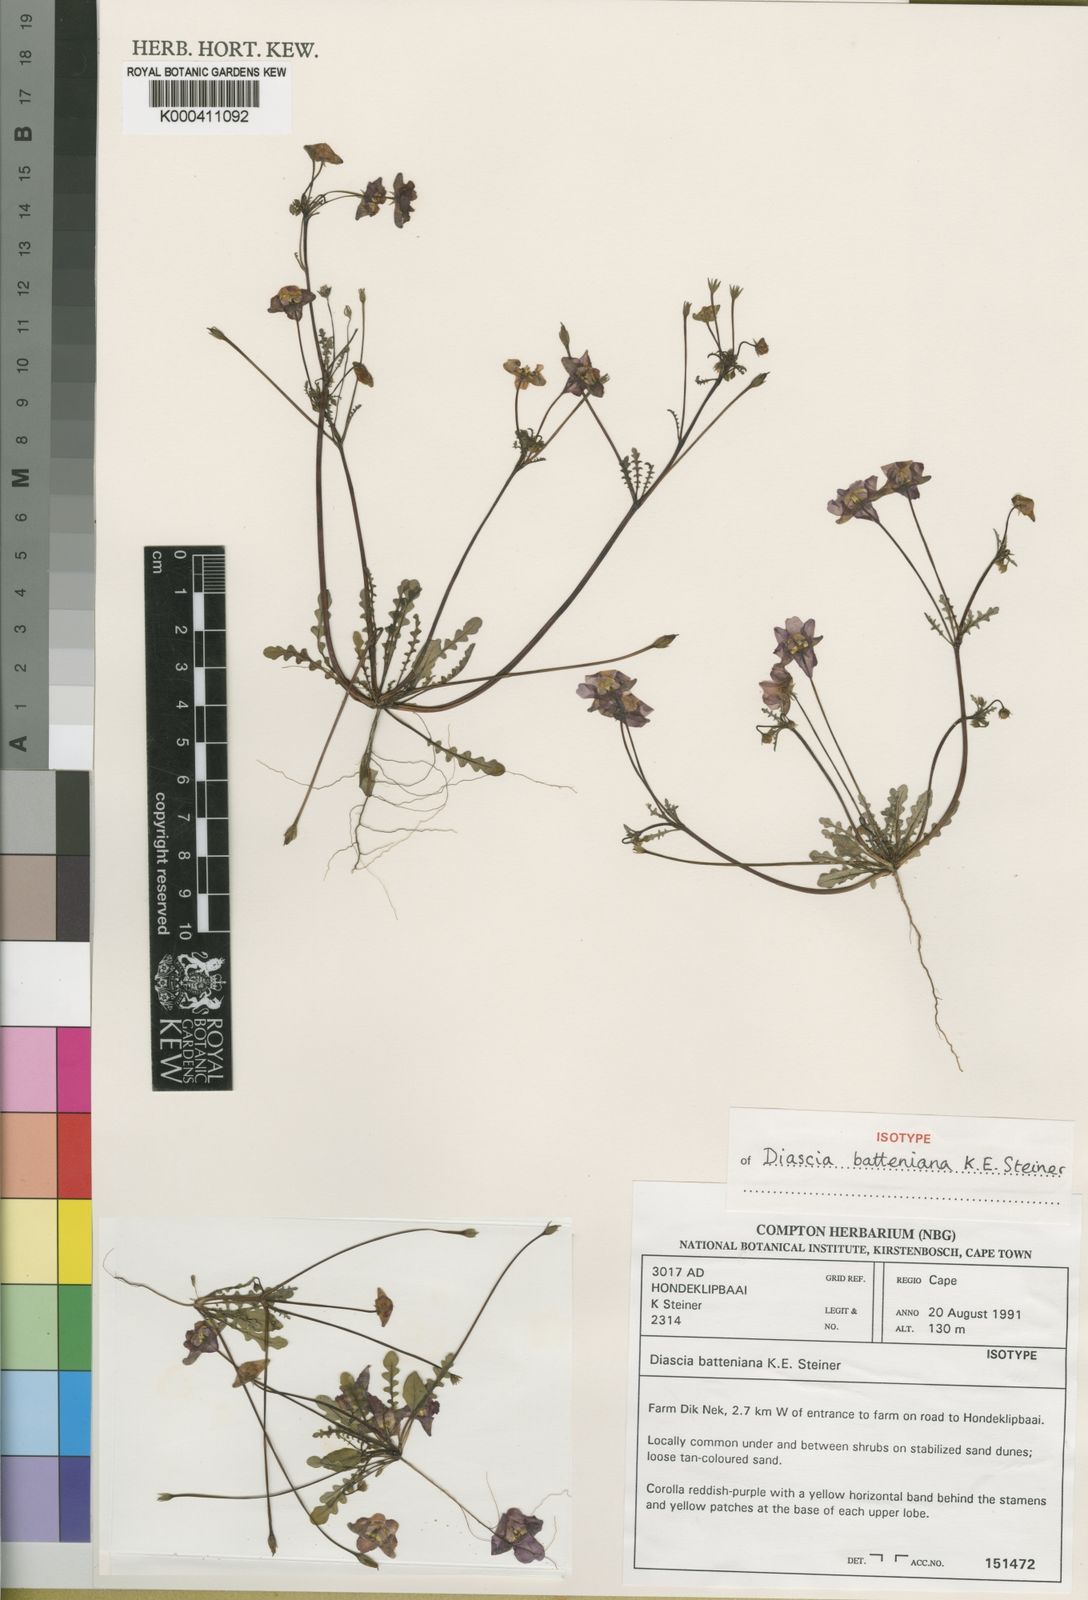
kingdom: Plantae
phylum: Tracheophyta
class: Magnoliopsida
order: Lamiales
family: Scrophulariaceae
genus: Diascia
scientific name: Diascia batteniana
